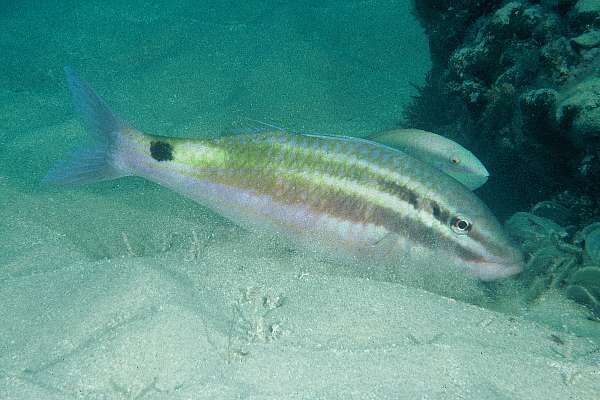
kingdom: Animalia
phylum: Chordata
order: Perciformes
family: Mullidae
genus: Parupeneus
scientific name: Parupeneus spilurus
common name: Blackspot goatfish
